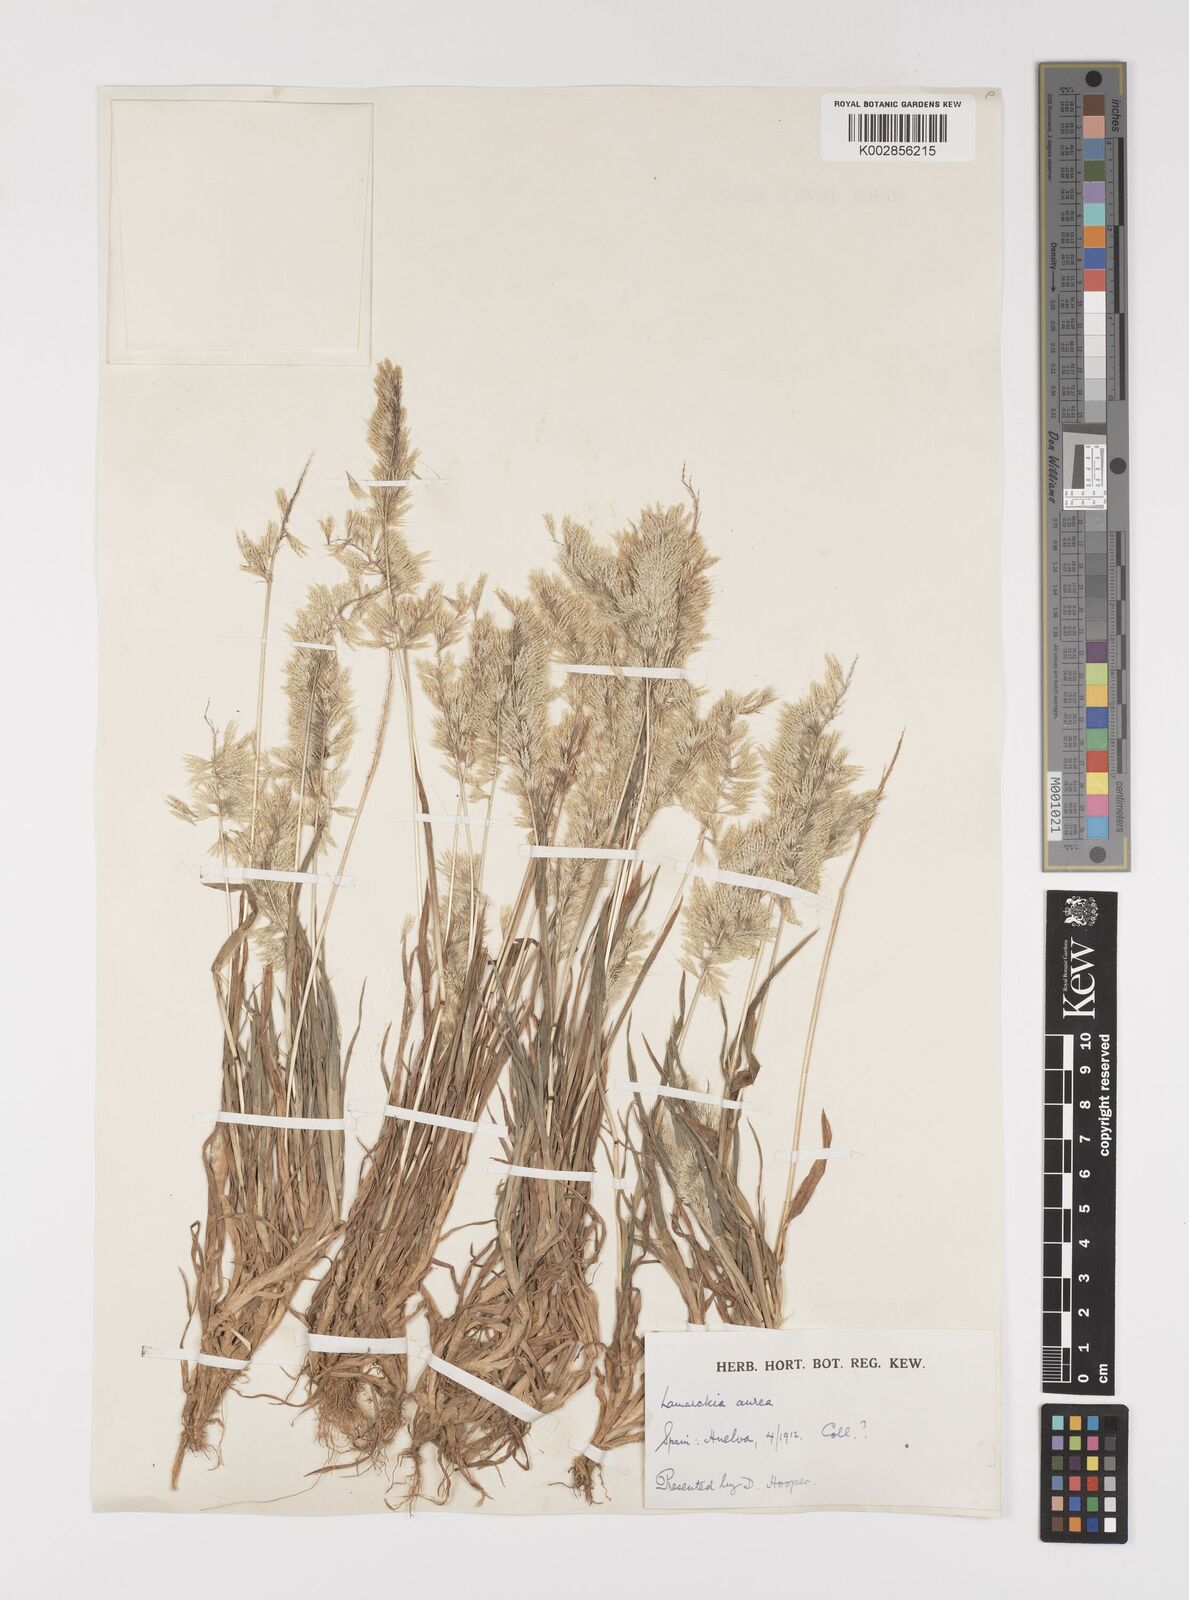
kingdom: Plantae
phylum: Tracheophyta
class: Liliopsida
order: Poales
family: Poaceae
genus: Lamarckia
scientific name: Lamarckia aurea
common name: Golden dog's-tail
